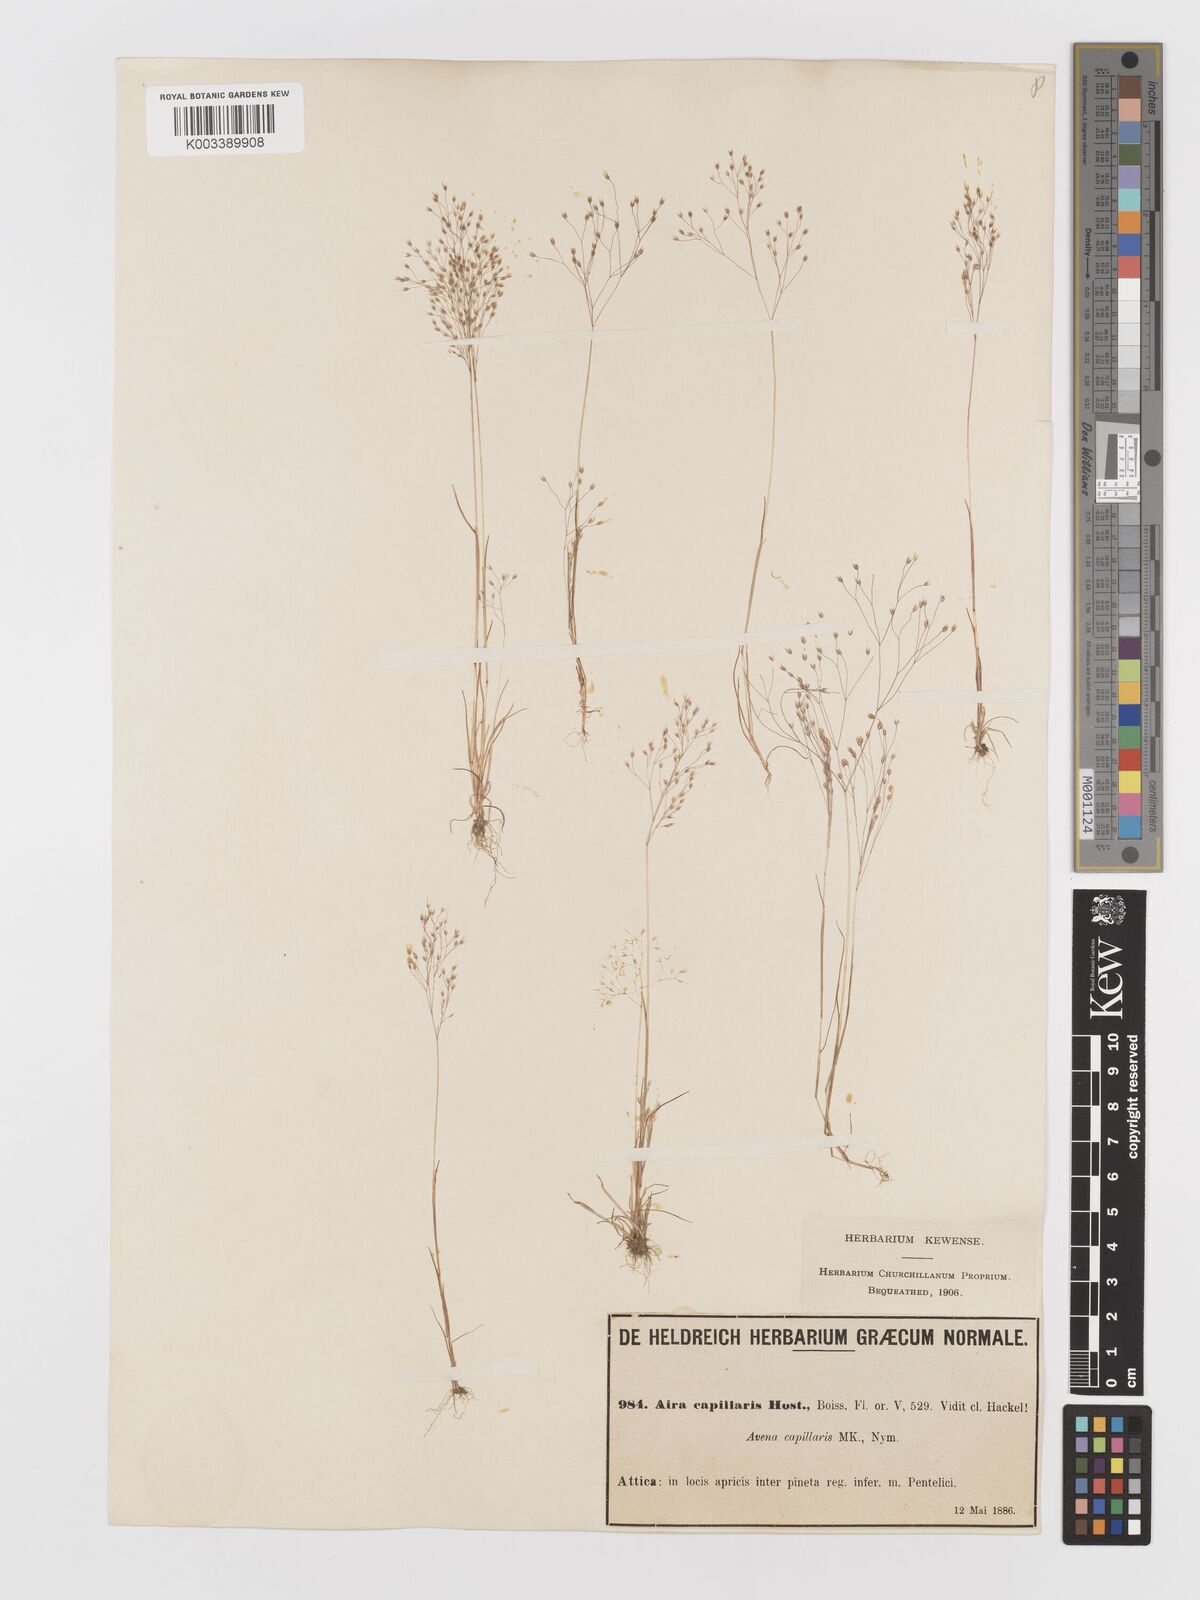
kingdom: Plantae
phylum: Tracheophyta
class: Liliopsida
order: Poales
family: Poaceae
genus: Aira
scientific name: Aira elegans
